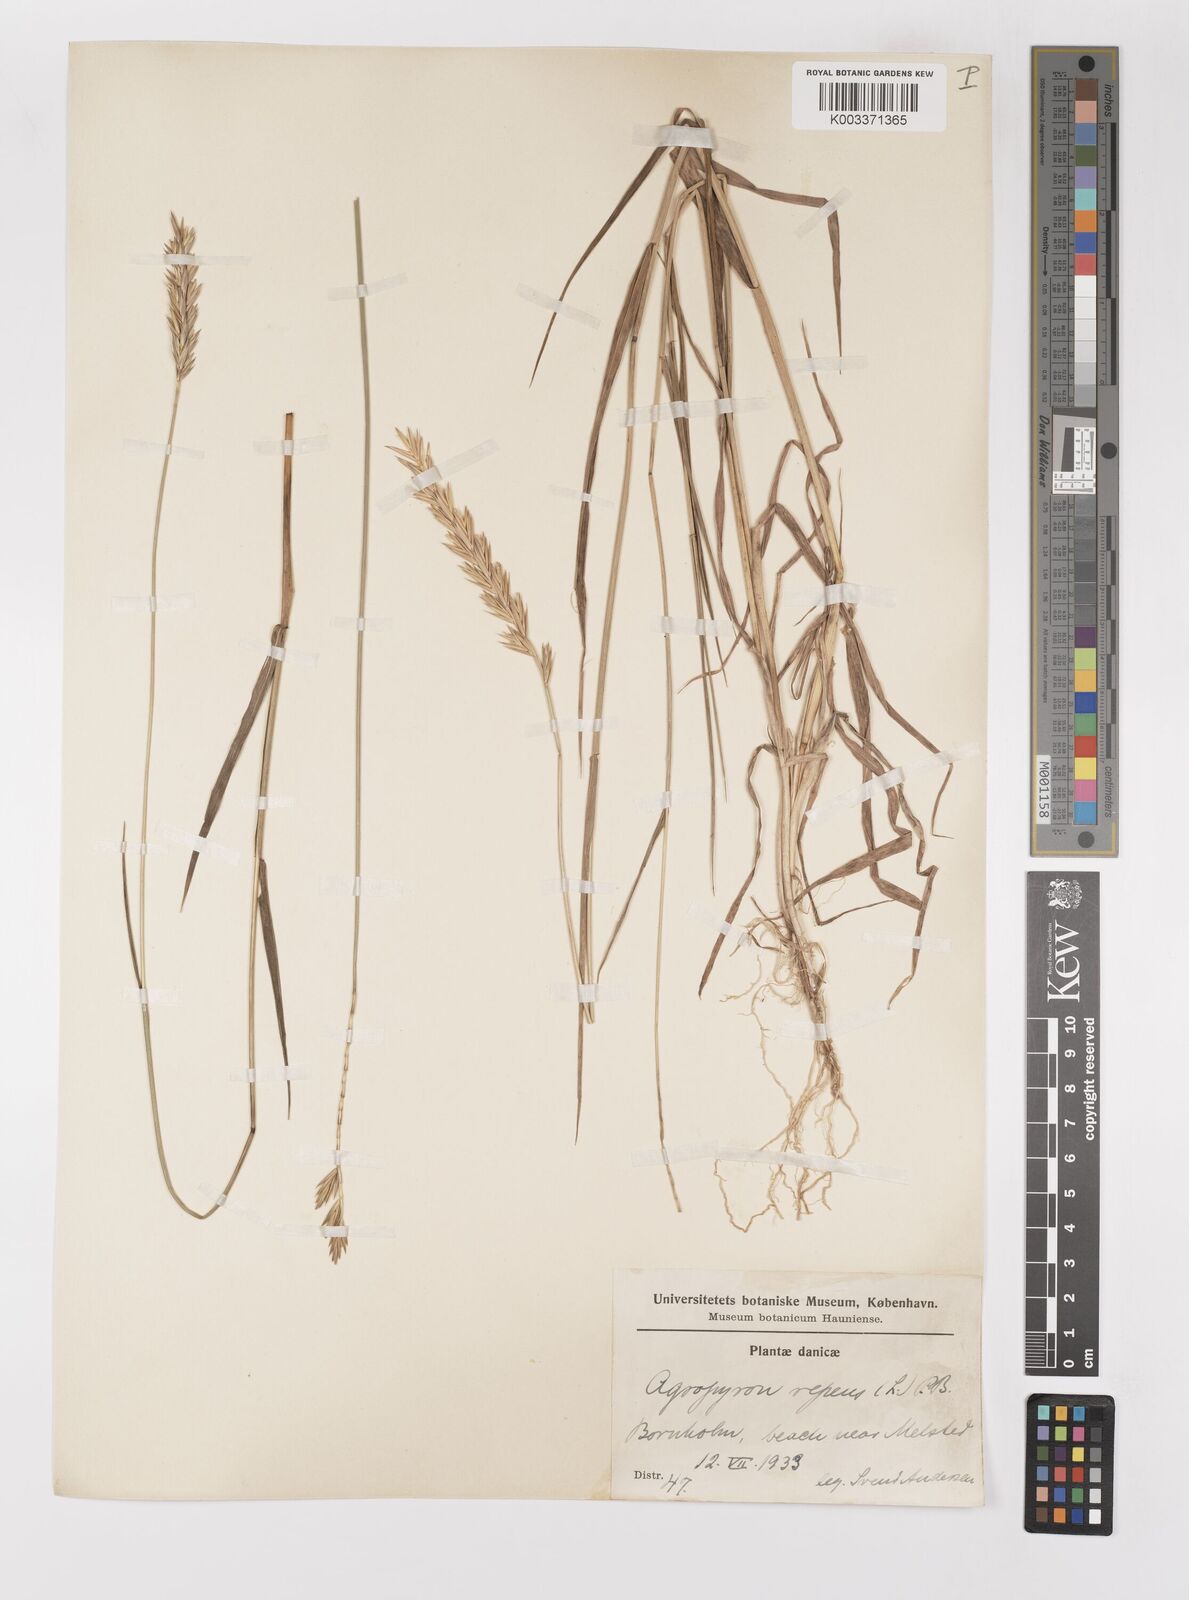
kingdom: Plantae
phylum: Tracheophyta
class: Liliopsida
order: Poales
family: Poaceae
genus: Elymus
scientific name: Elymus repens
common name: Quackgrass
